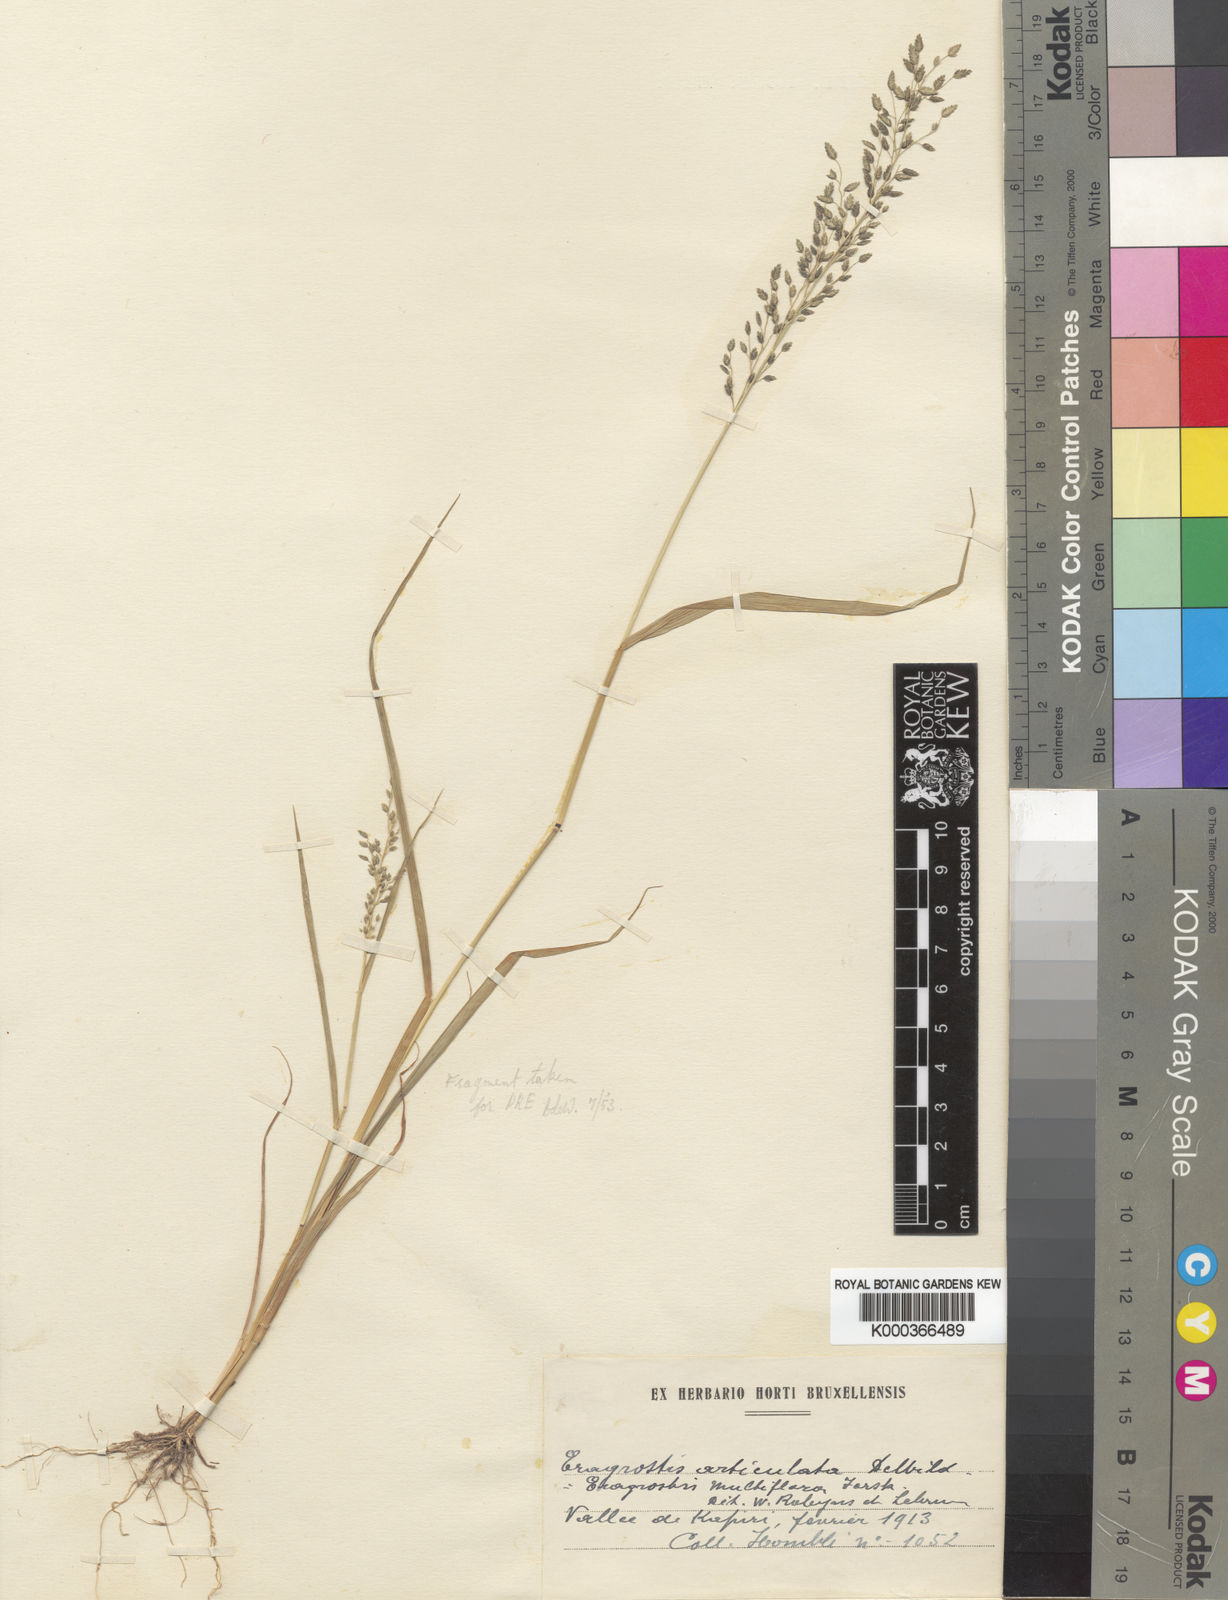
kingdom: Plantae
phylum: Tracheophyta
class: Liliopsida
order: Poales
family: Poaceae
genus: Eragrostis
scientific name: Eragrostis cilianensis
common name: Stinkgrass
